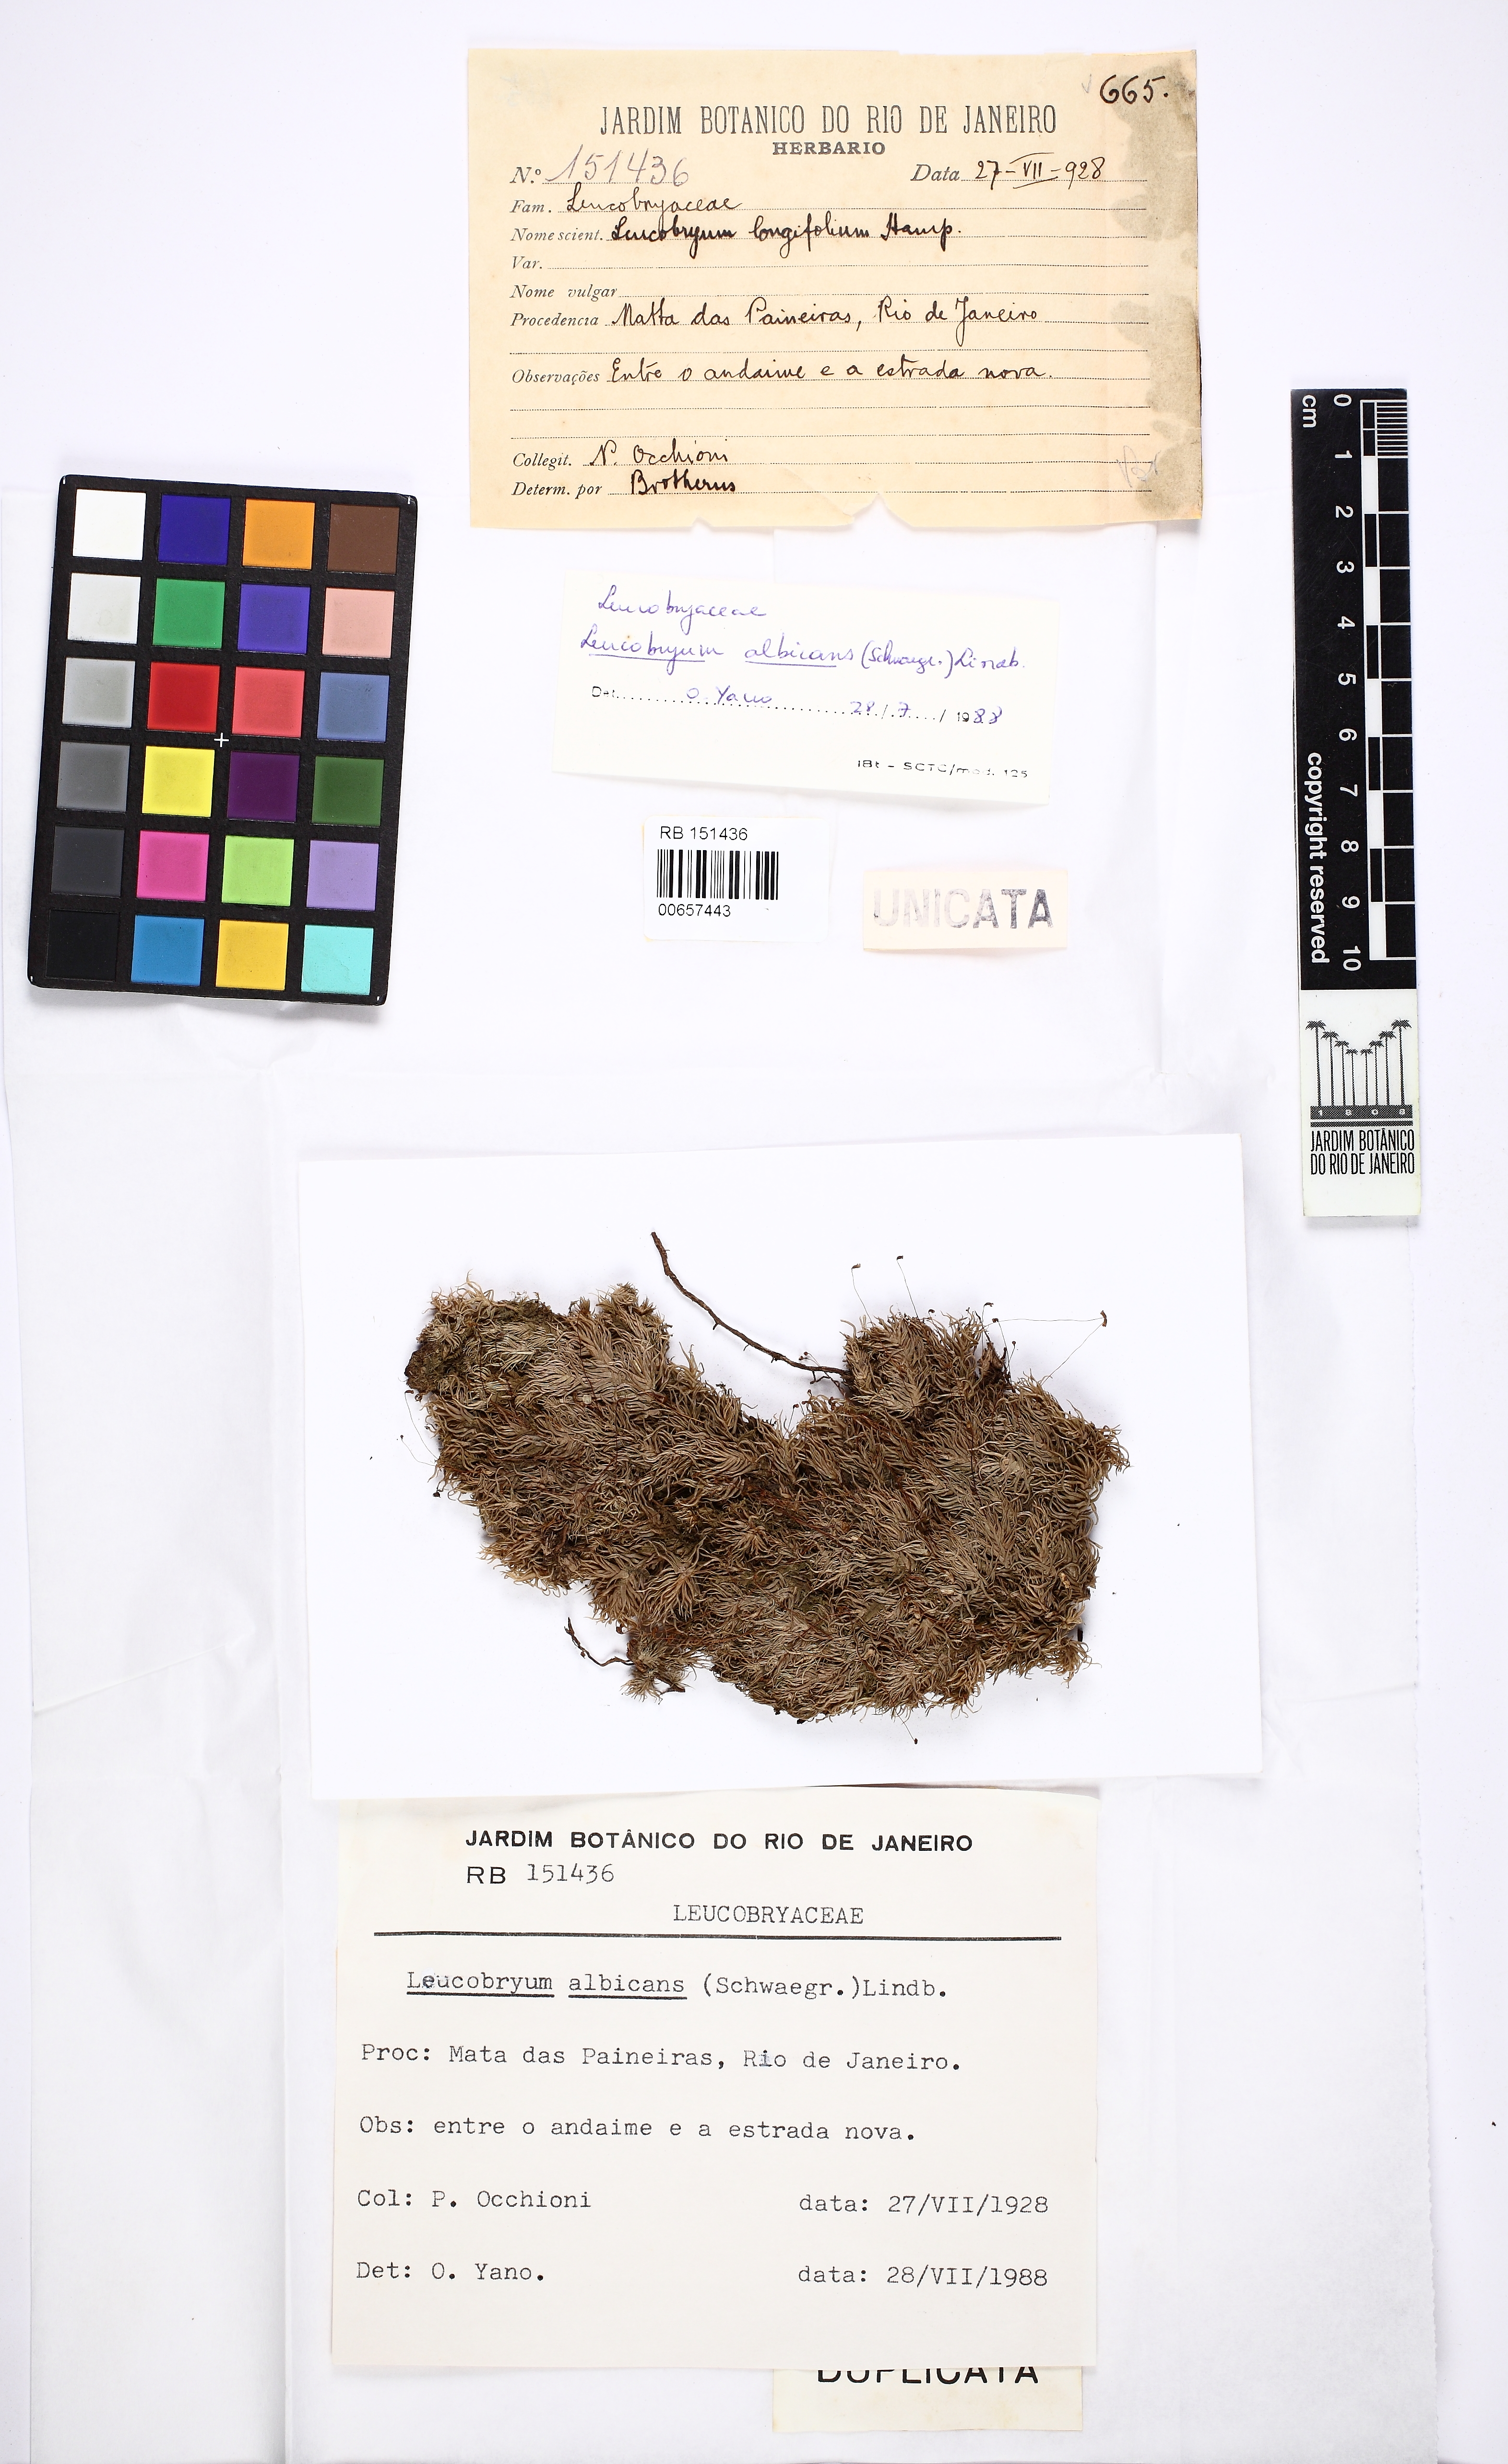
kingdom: Plantae
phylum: Bryophyta
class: Bryopsida
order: Dicranales
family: Leucobryaceae
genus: Leucobryum
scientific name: Leucobryum albicans
